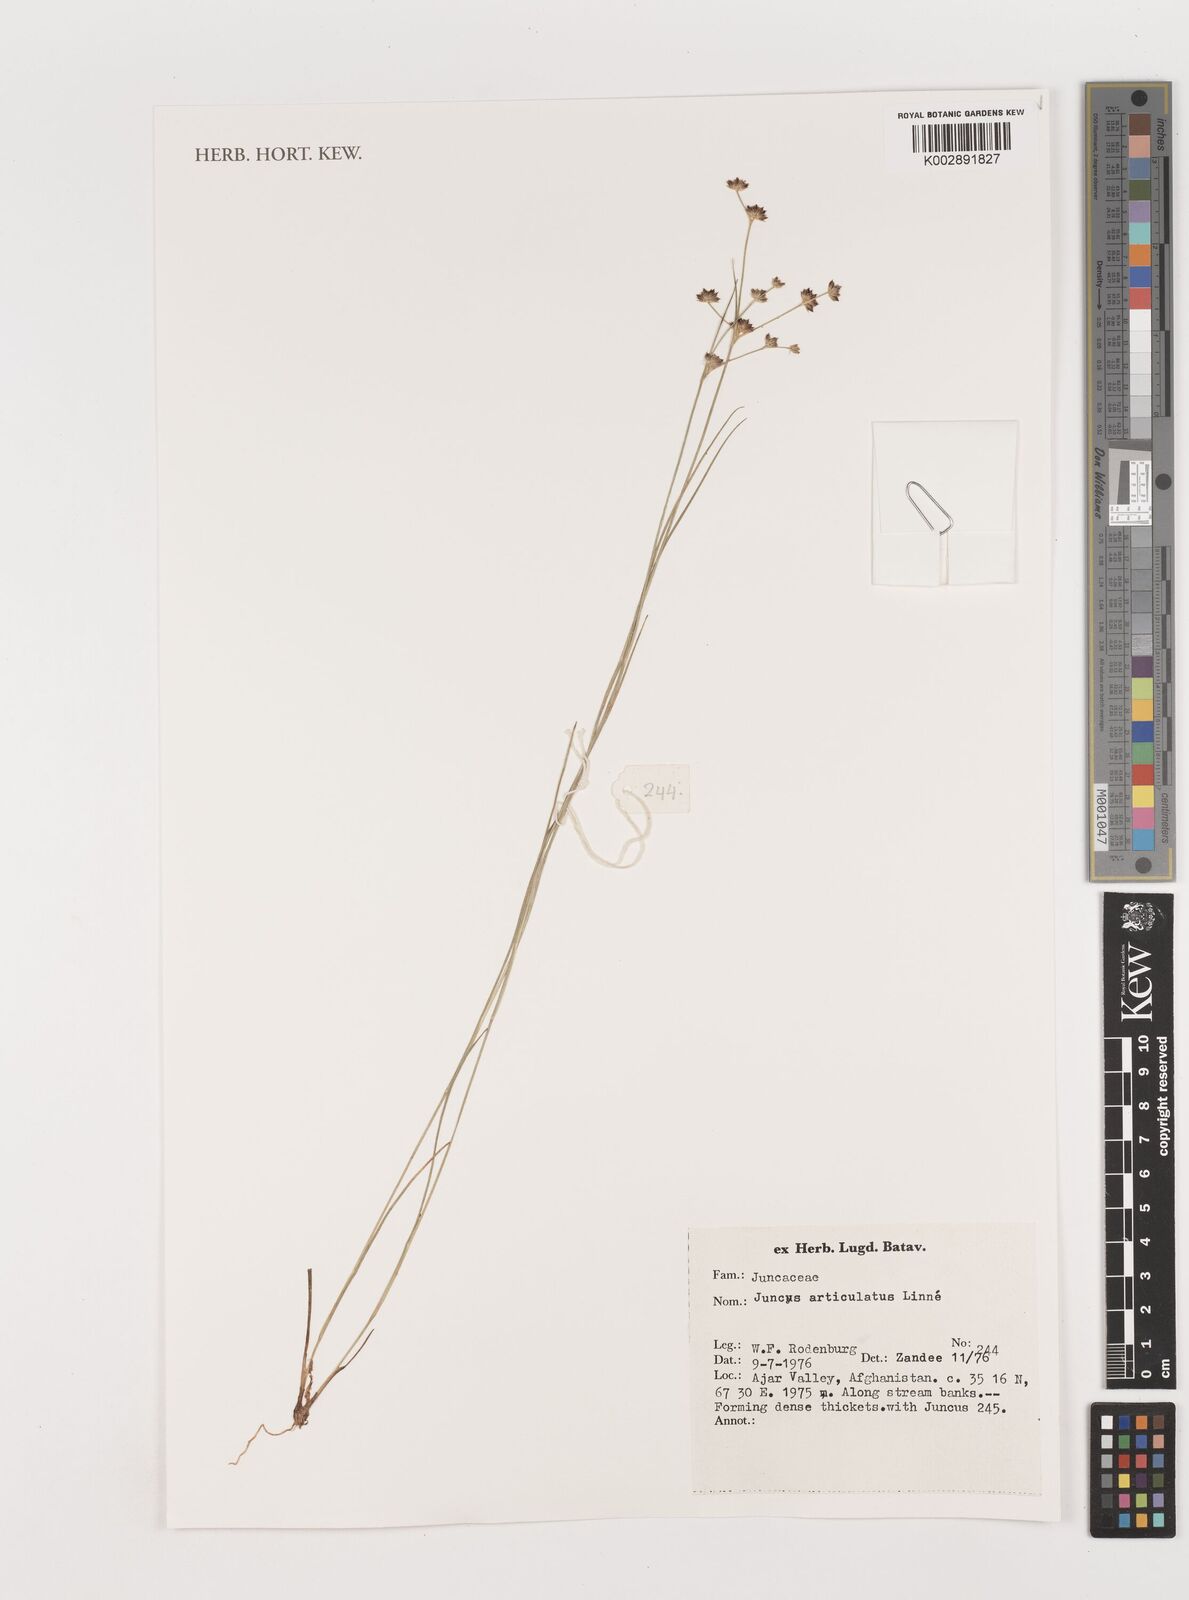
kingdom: Plantae
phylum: Tracheophyta
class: Liliopsida
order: Poales
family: Juncaceae
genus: Juncus
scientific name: Juncus articulatus
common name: Jointed rush
